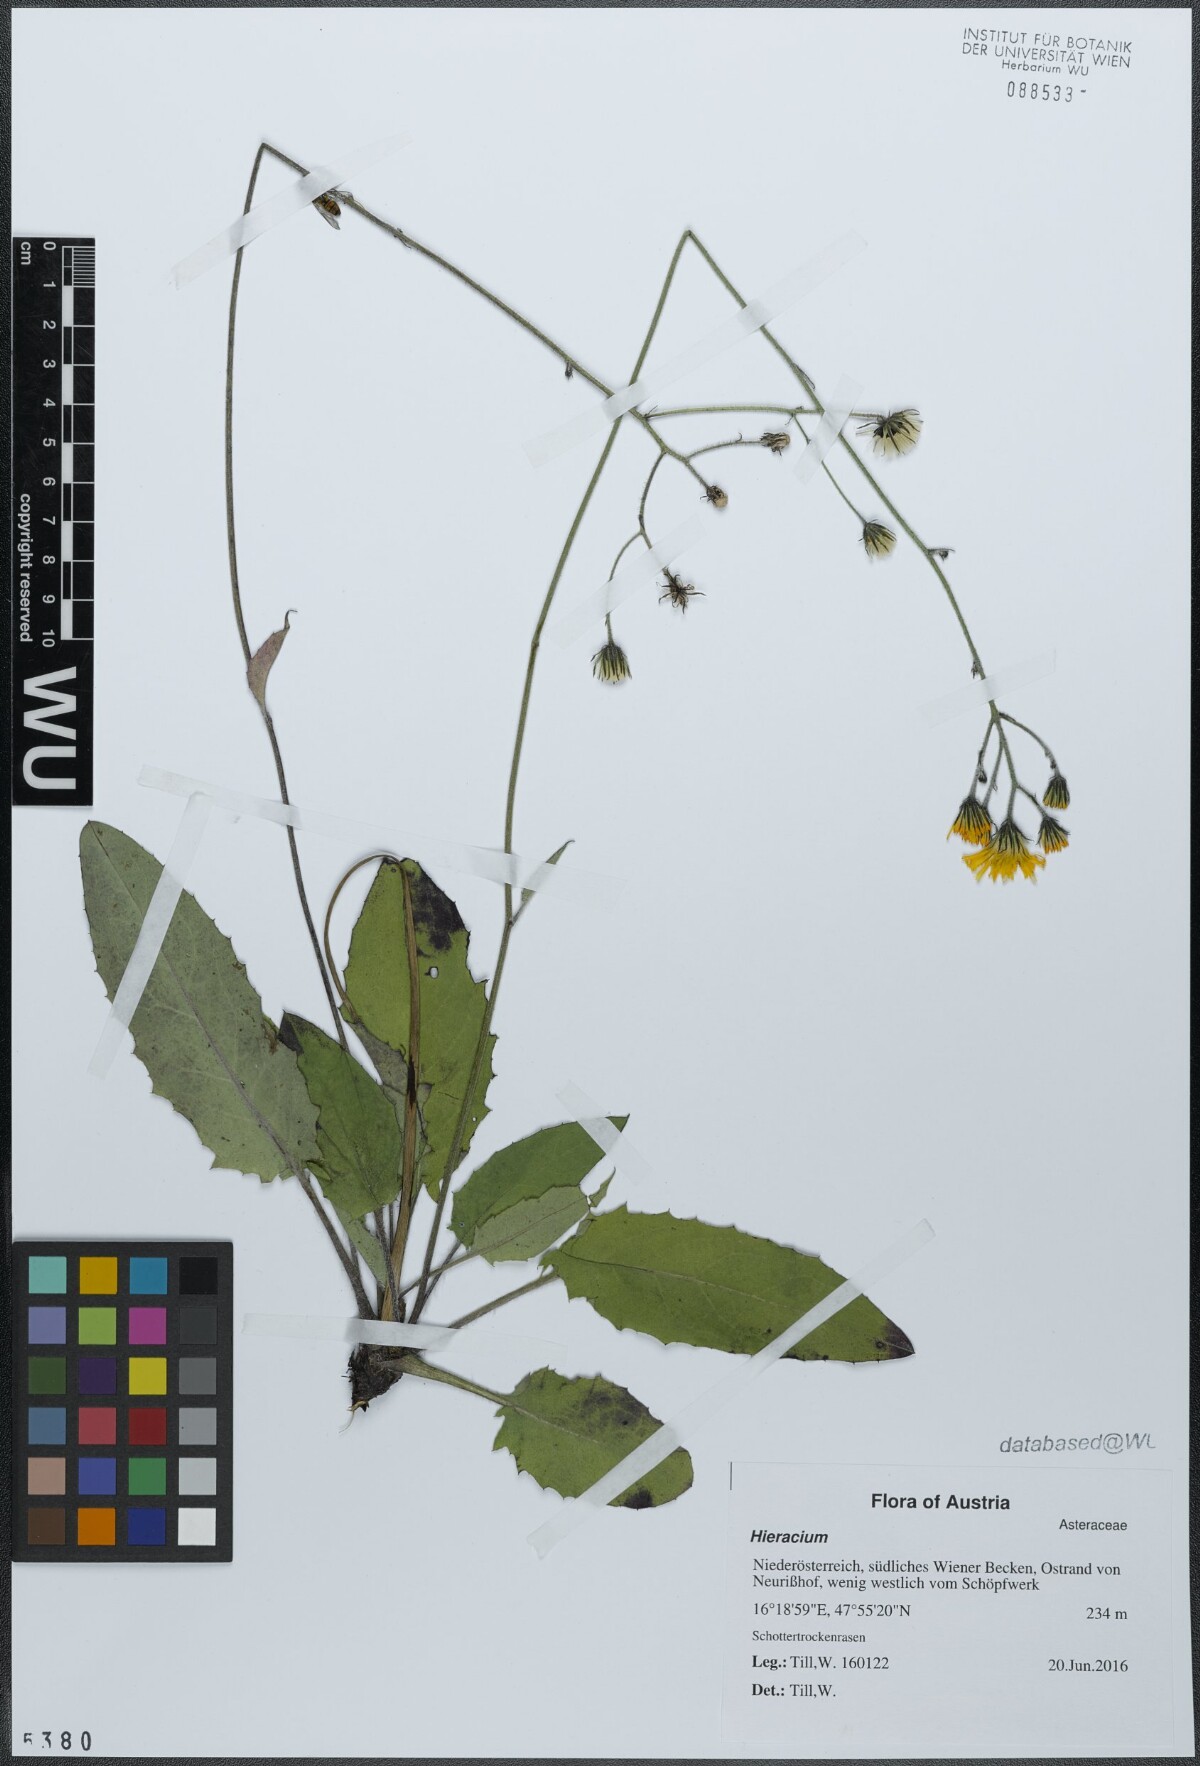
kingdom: Plantae
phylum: Tracheophyta
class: Magnoliopsida
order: Asterales
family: Asteraceae
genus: Hieracium
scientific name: Hieracium murorum
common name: Wall hawkweed
